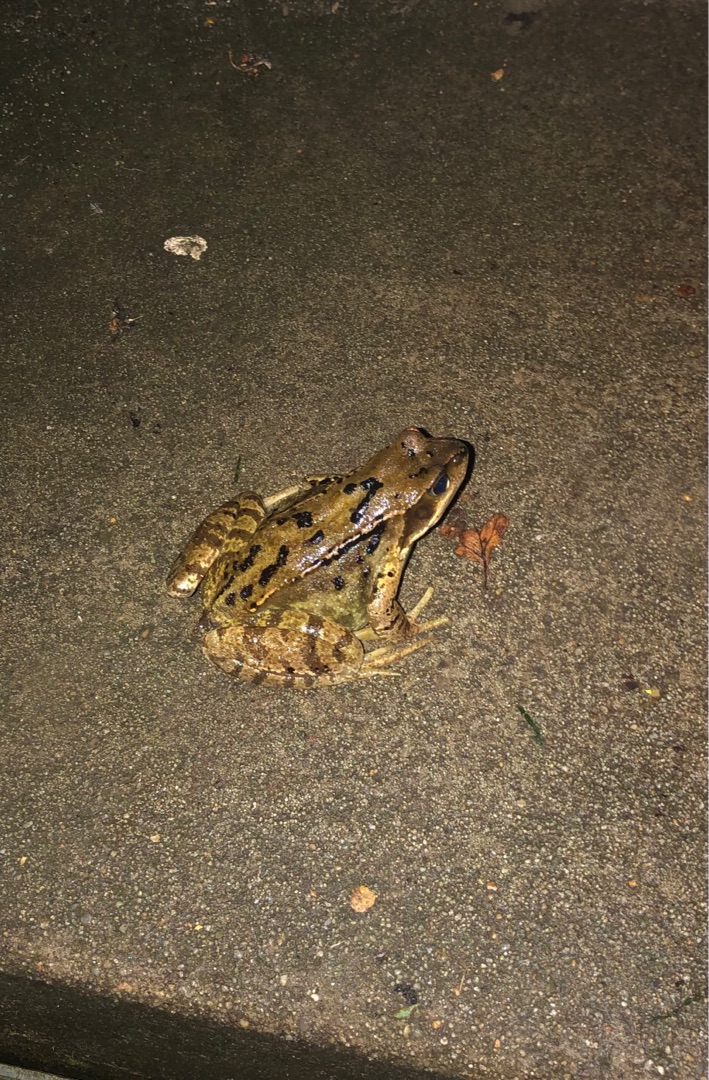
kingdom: Animalia
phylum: Chordata
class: Amphibia
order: Anura
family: Ranidae
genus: Rana
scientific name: Rana temporaria
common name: Butsnudet frø
